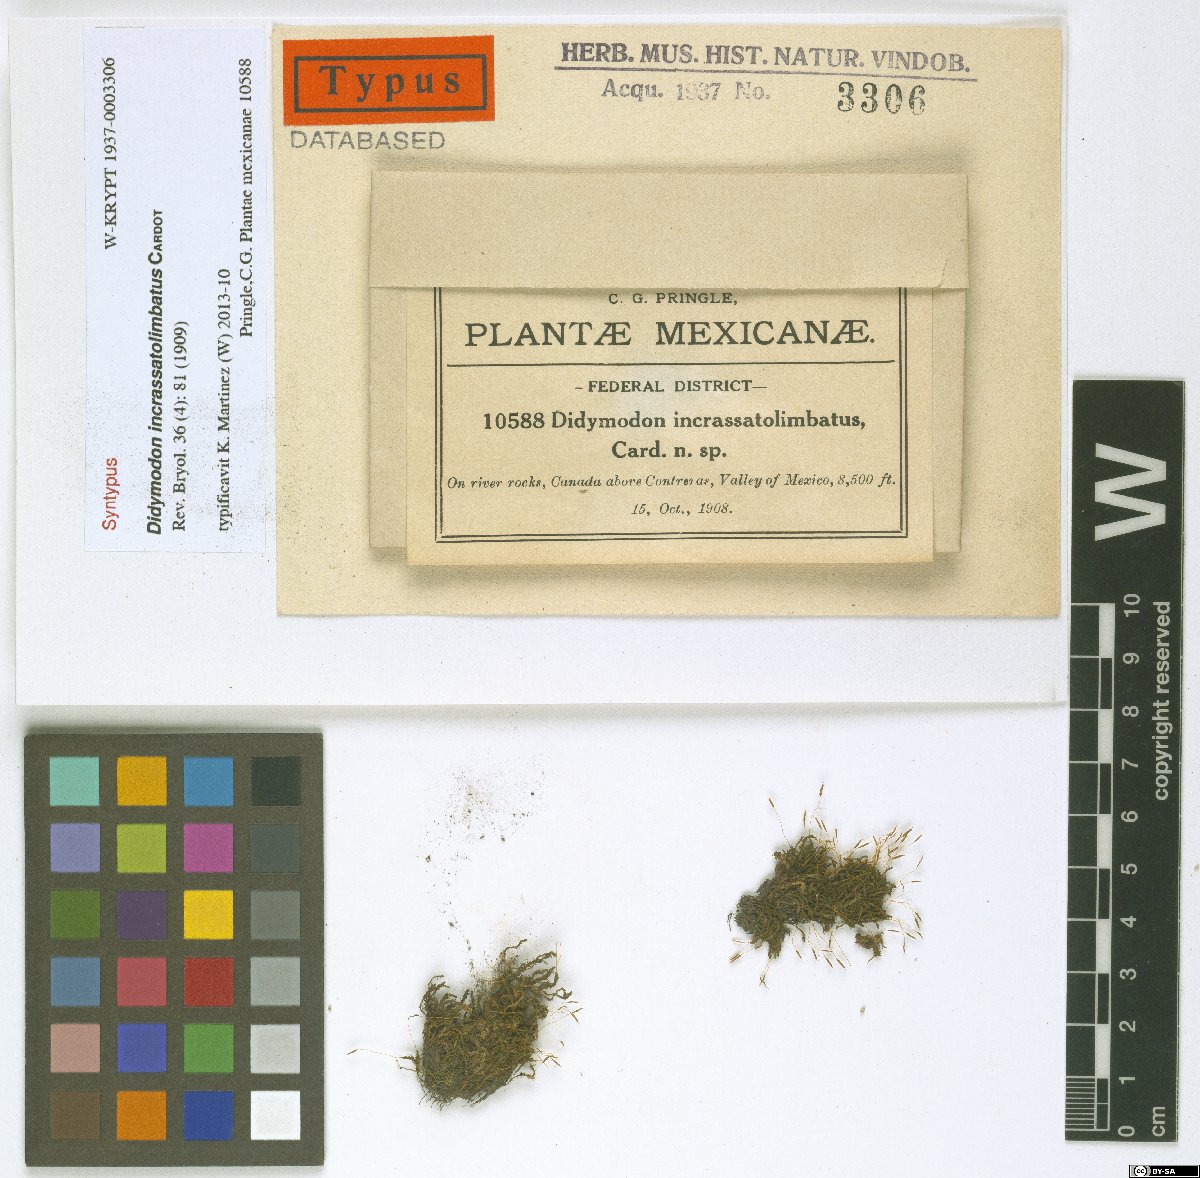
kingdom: Plantae
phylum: Bryophyta
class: Bryopsida
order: Pottiales
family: Pottiaceae
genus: Husnotiella
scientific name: Husnotiella incrassatolimbata
